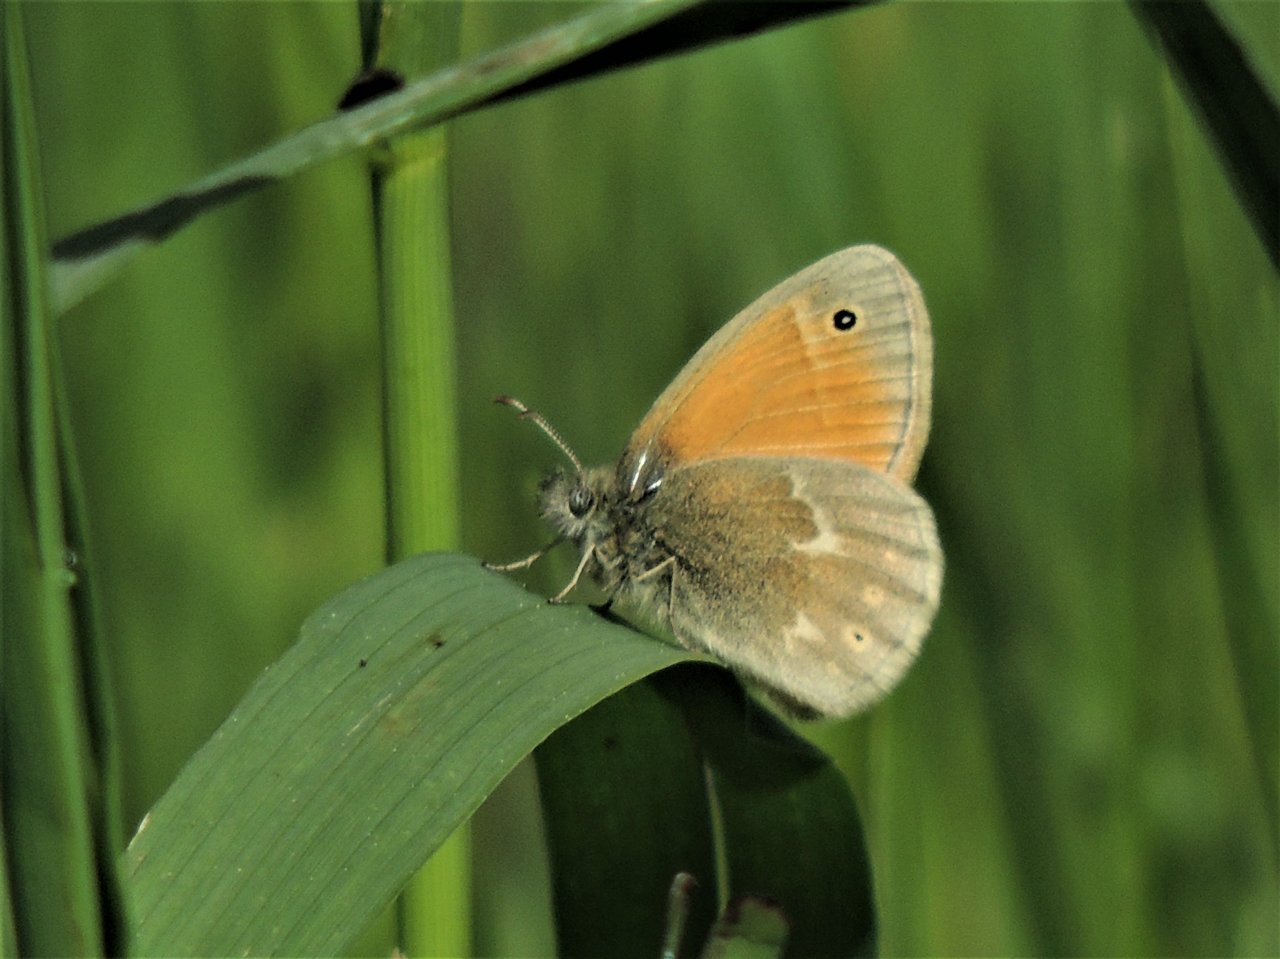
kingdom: Animalia
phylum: Arthropoda
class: Insecta
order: Lepidoptera
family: Nymphalidae
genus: Coenonympha
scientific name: Coenonympha tullia
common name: Large Heath
